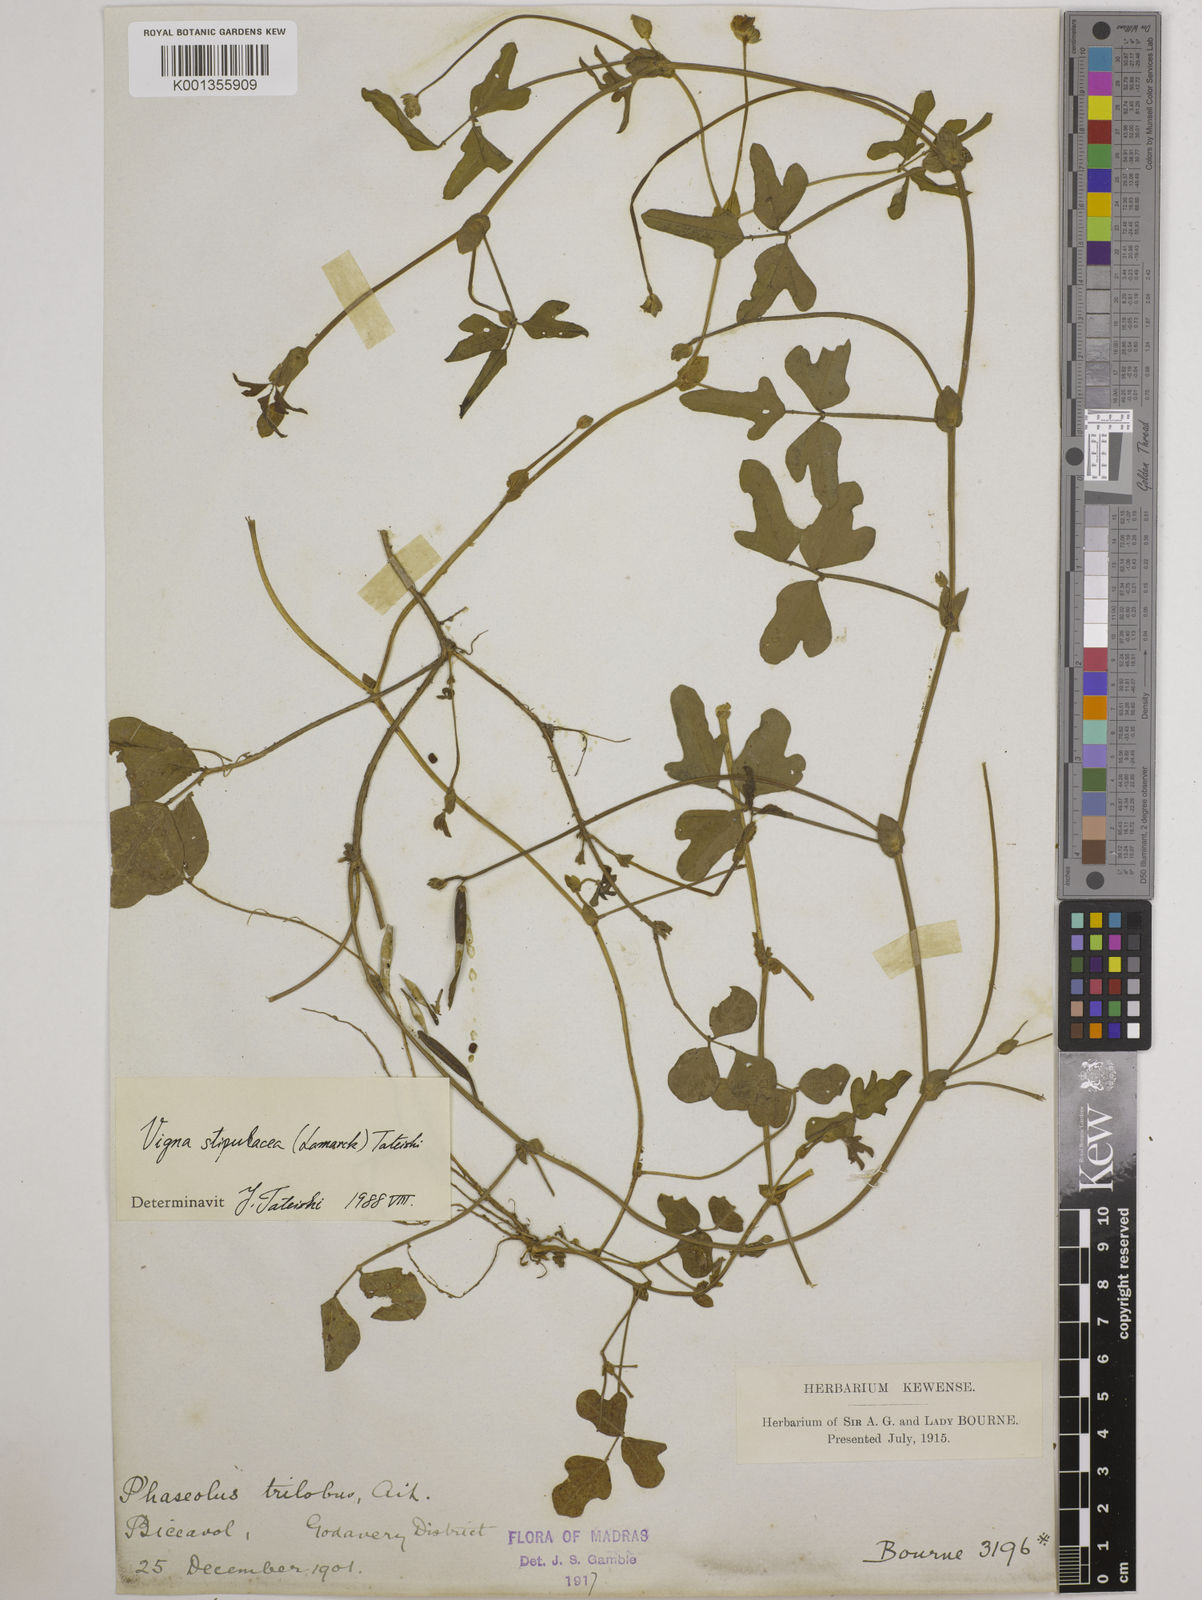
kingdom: Plantae
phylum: Tracheophyta
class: Magnoliopsida
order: Fabales
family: Fabaceae
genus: Pueraria
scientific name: Pueraria montana
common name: Kudzu
